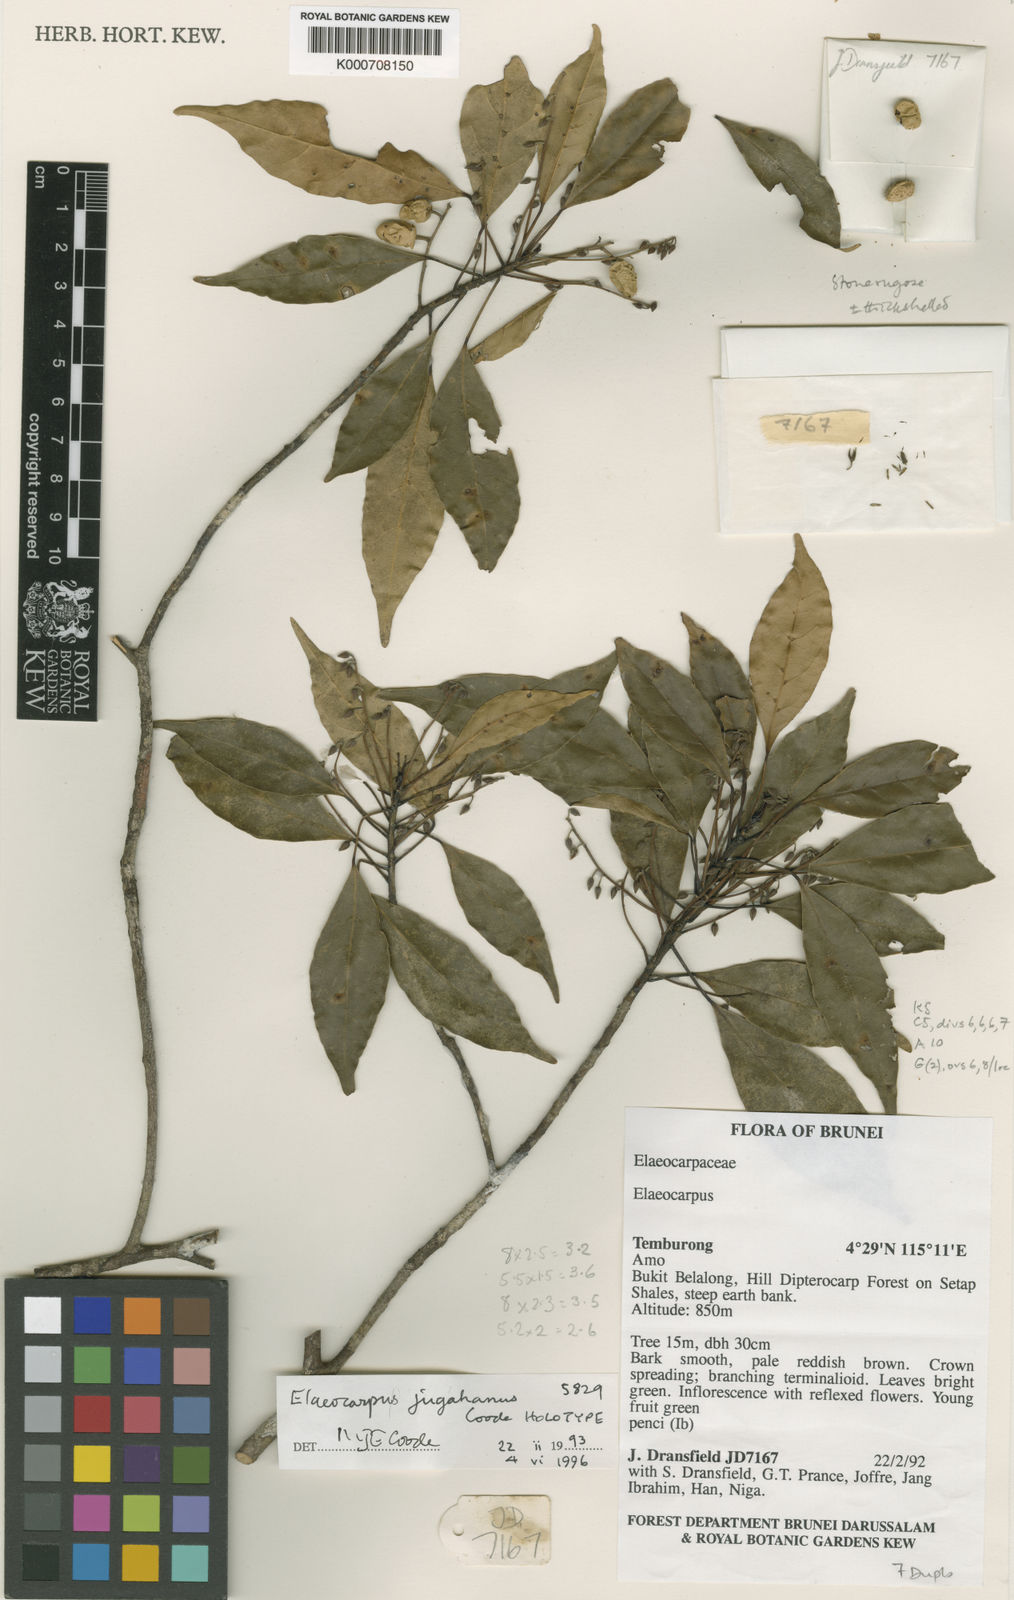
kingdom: Plantae
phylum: Tracheophyta
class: Magnoliopsida
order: Oxalidales
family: Elaeocarpaceae
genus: Elaeocarpus
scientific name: Elaeocarpus jugahanus
